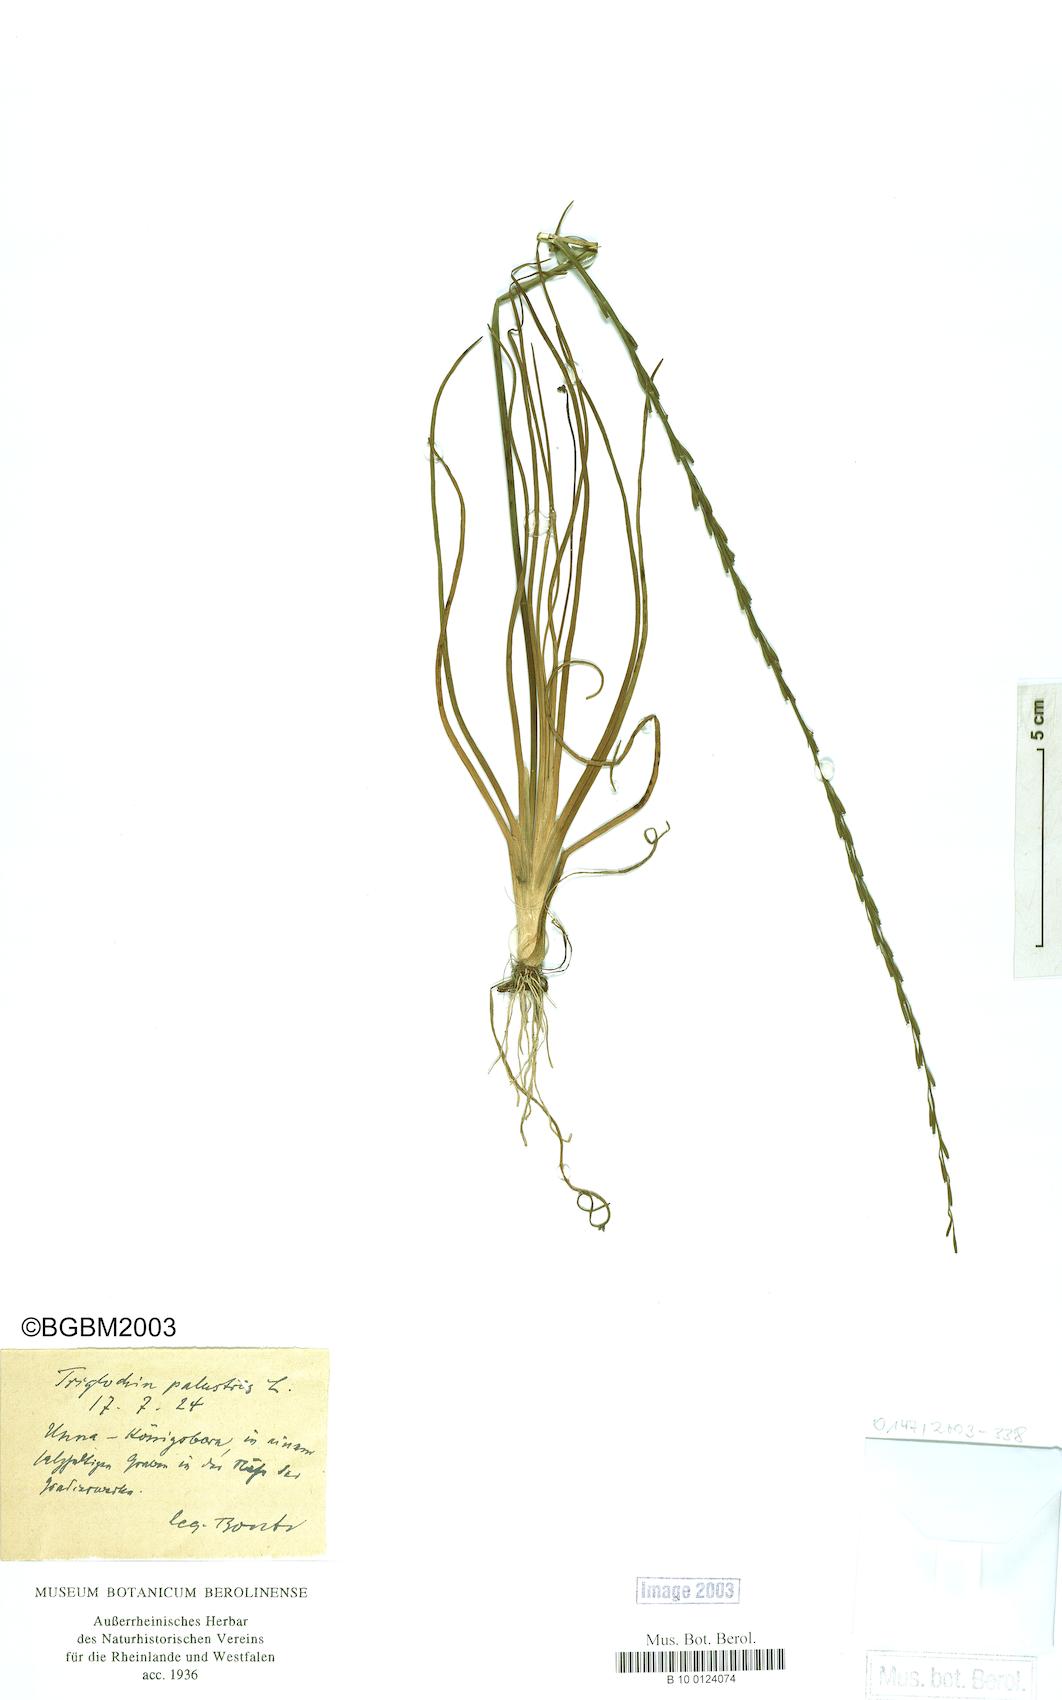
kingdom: Plantae
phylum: Tracheophyta
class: Liliopsida
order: Alismatales
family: Juncaginaceae
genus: Triglochin
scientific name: Triglochin palustris
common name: Marsh arrowgrass
